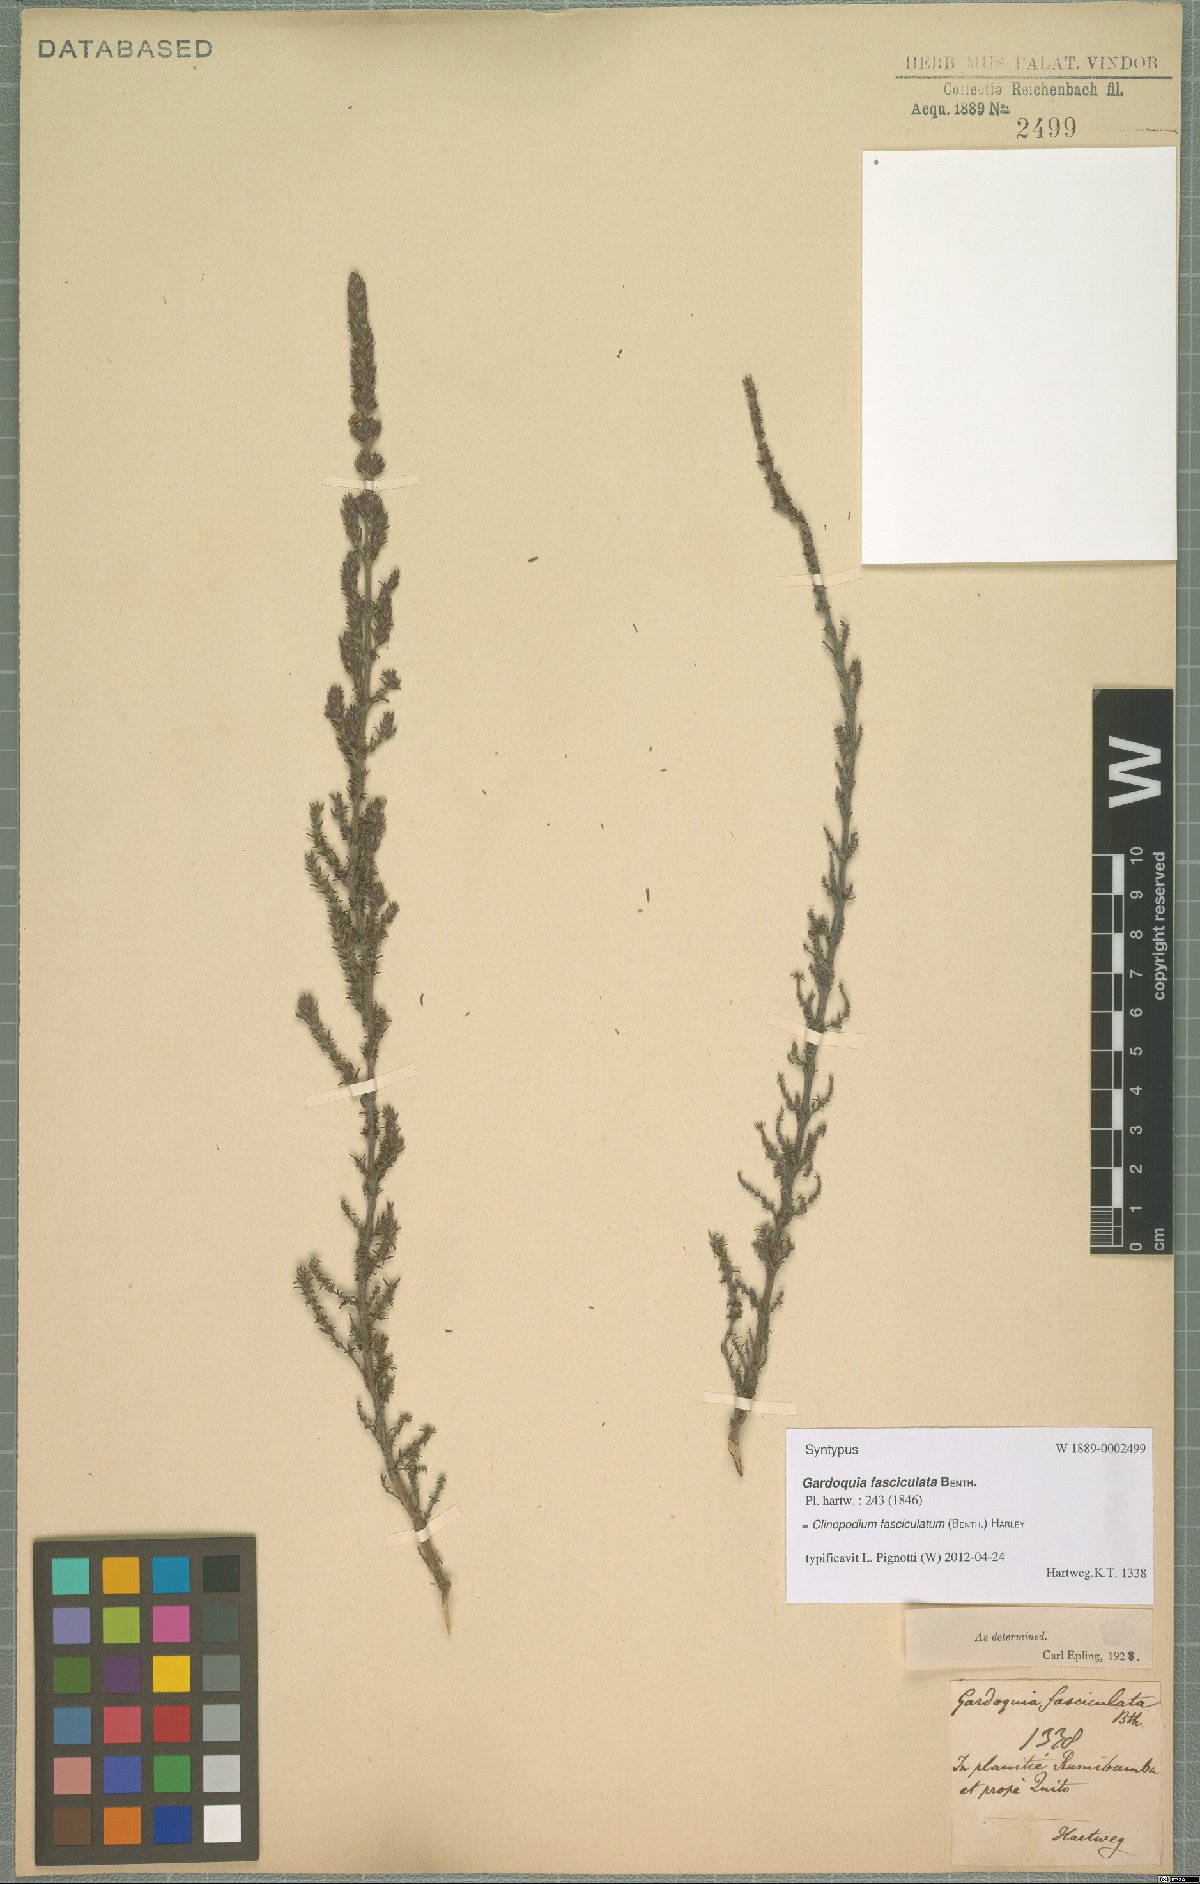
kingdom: Plantae
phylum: Tracheophyta
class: Magnoliopsida
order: Lamiales
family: Lamiaceae
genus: Clinopodium
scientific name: Clinopodium fasciculatum
